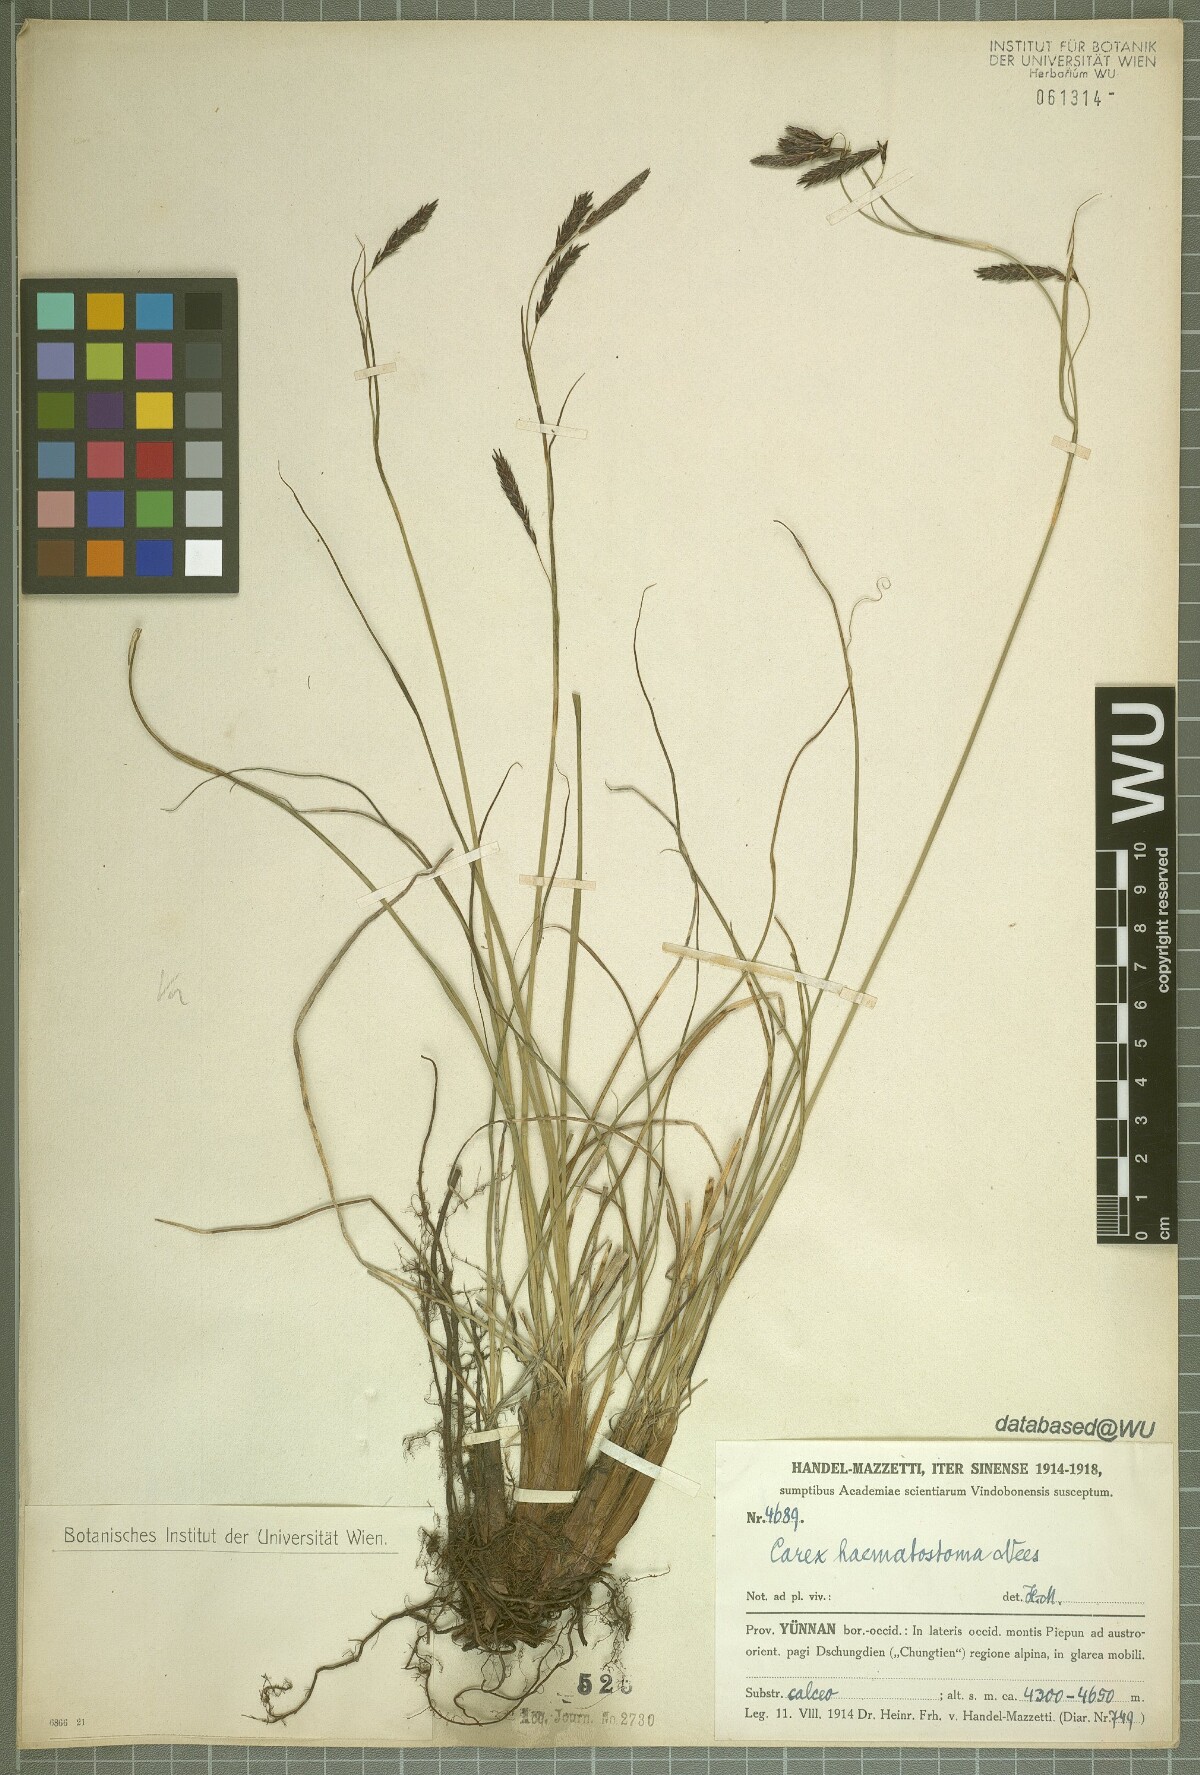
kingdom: Plantae
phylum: Tracheophyta
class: Liliopsida
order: Poales
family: Cyperaceae
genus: Carex
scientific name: Carex haematostoma
